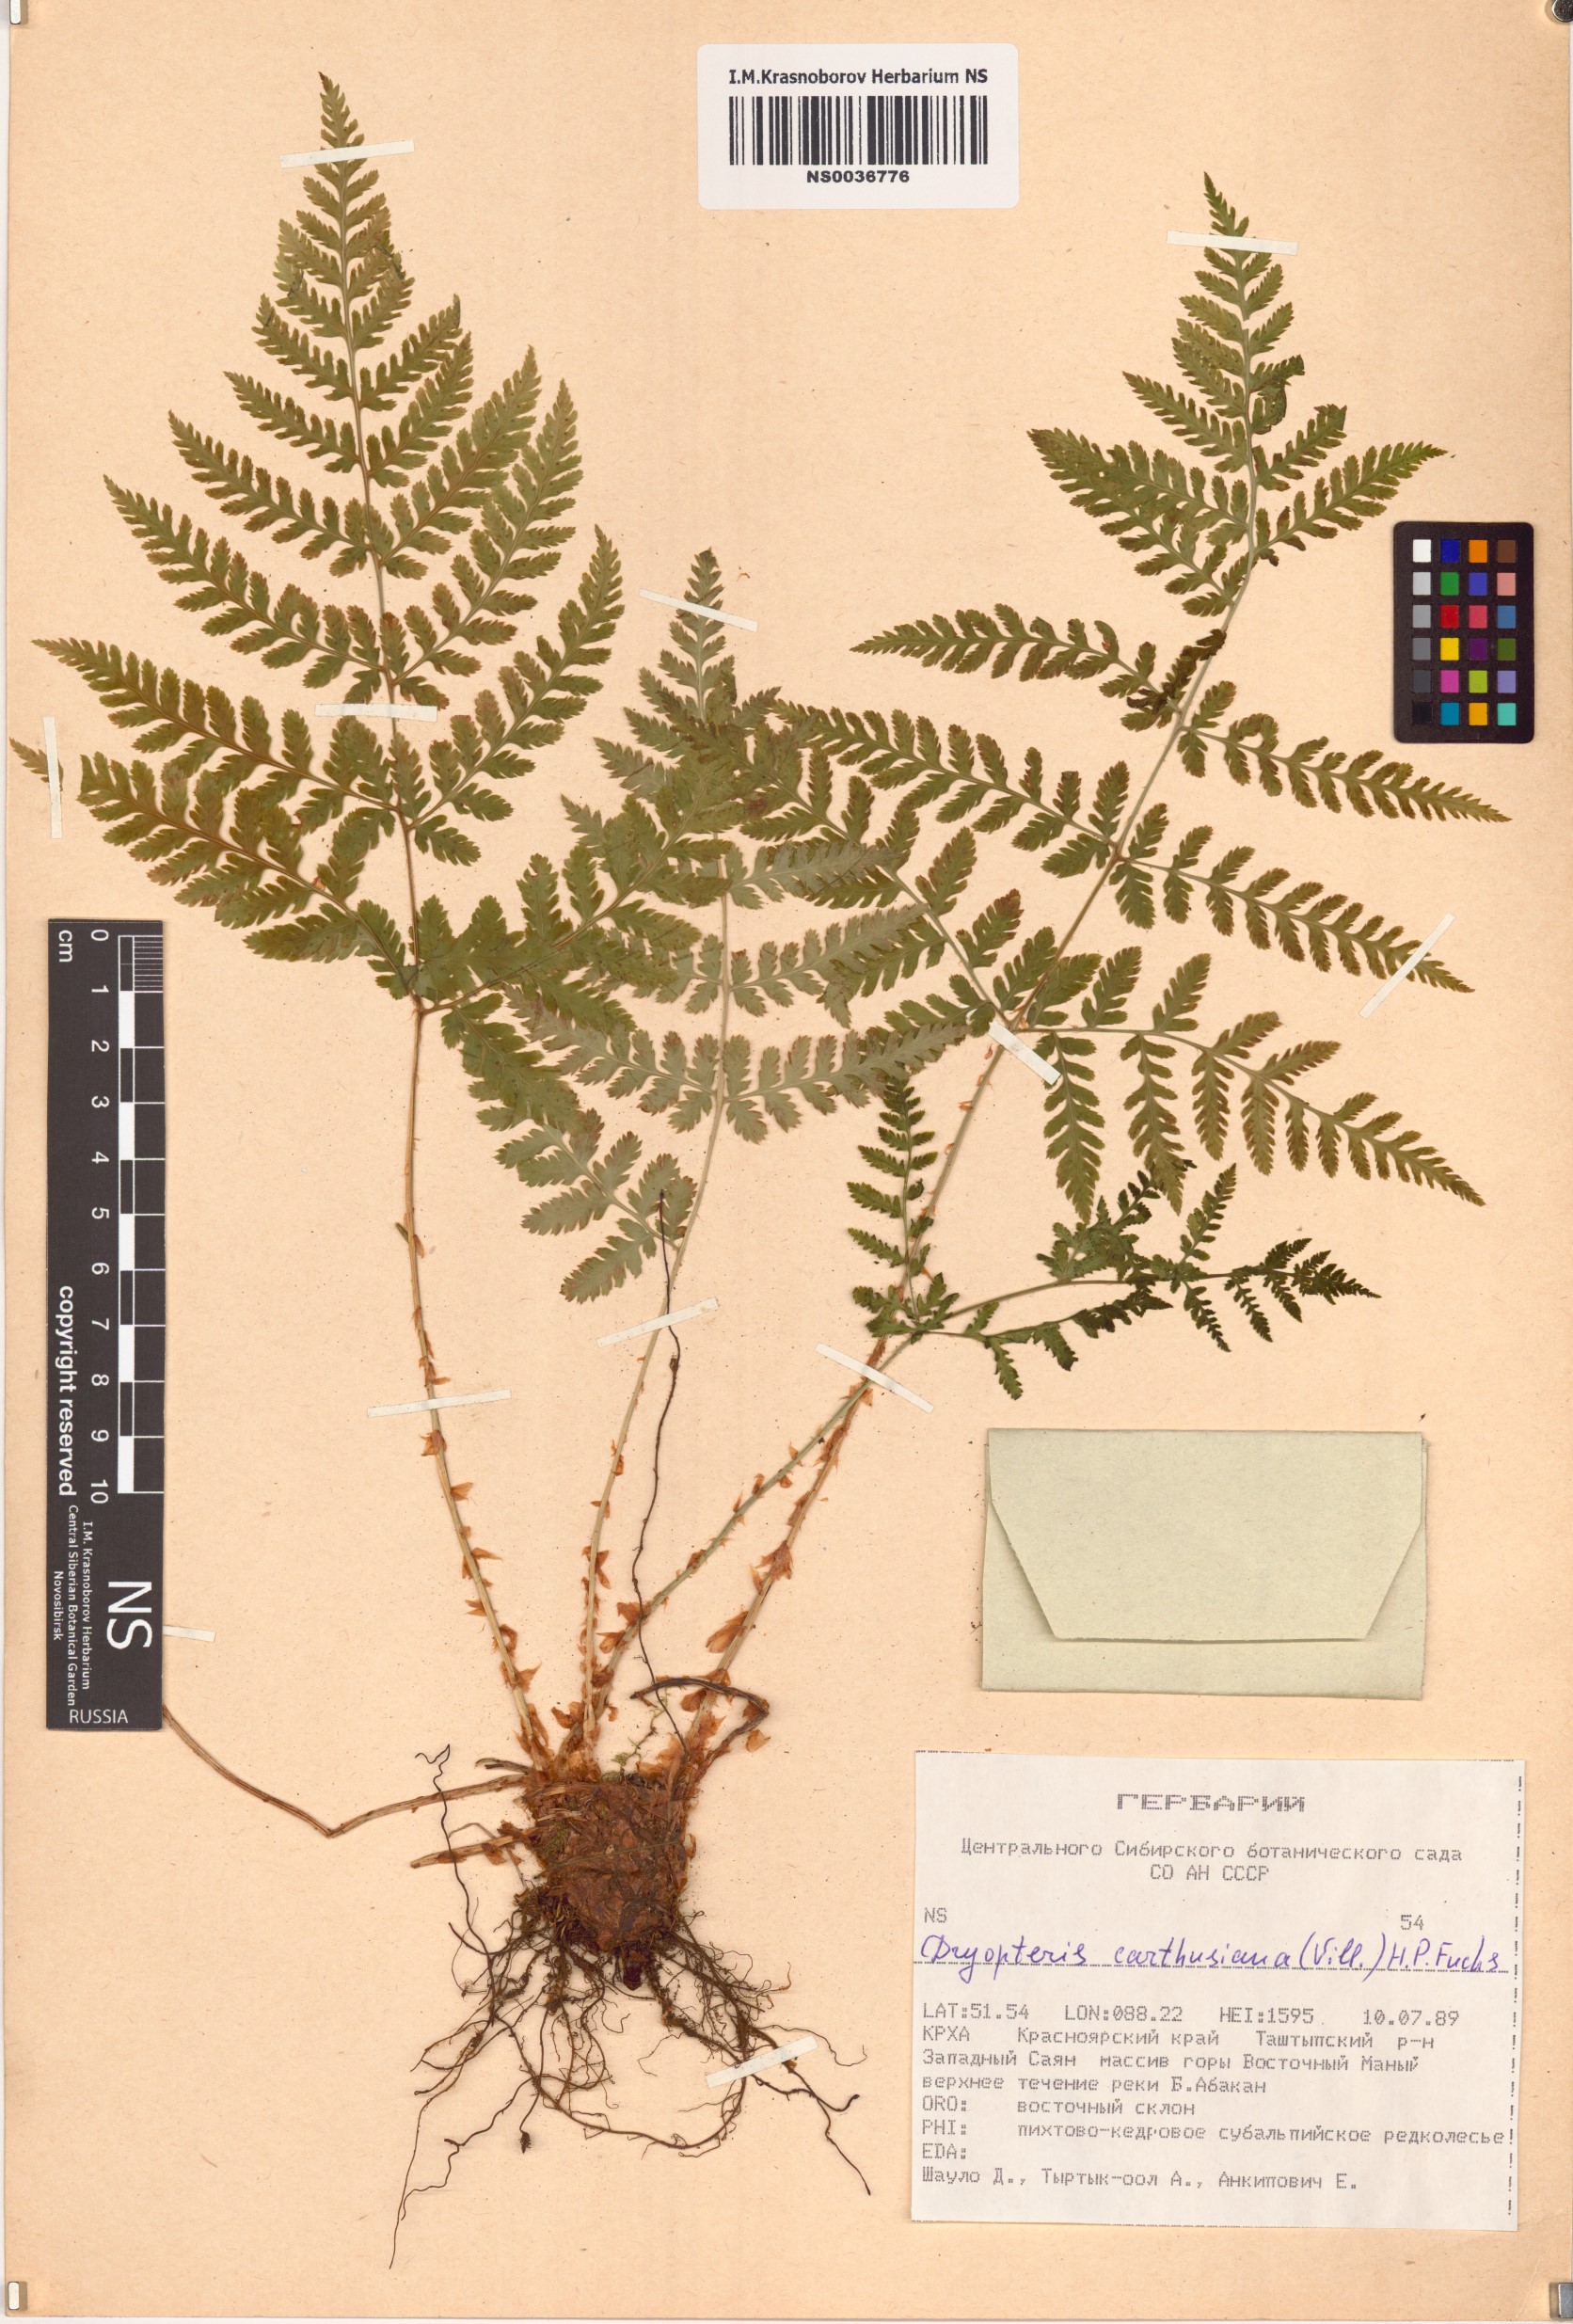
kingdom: Plantae
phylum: Tracheophyta
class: Polypodiopsida
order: Polypodiales
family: Dryopteridaceae
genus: Dryopteris
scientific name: Dryopteris carthusiana
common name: Narrow buckler-fern
